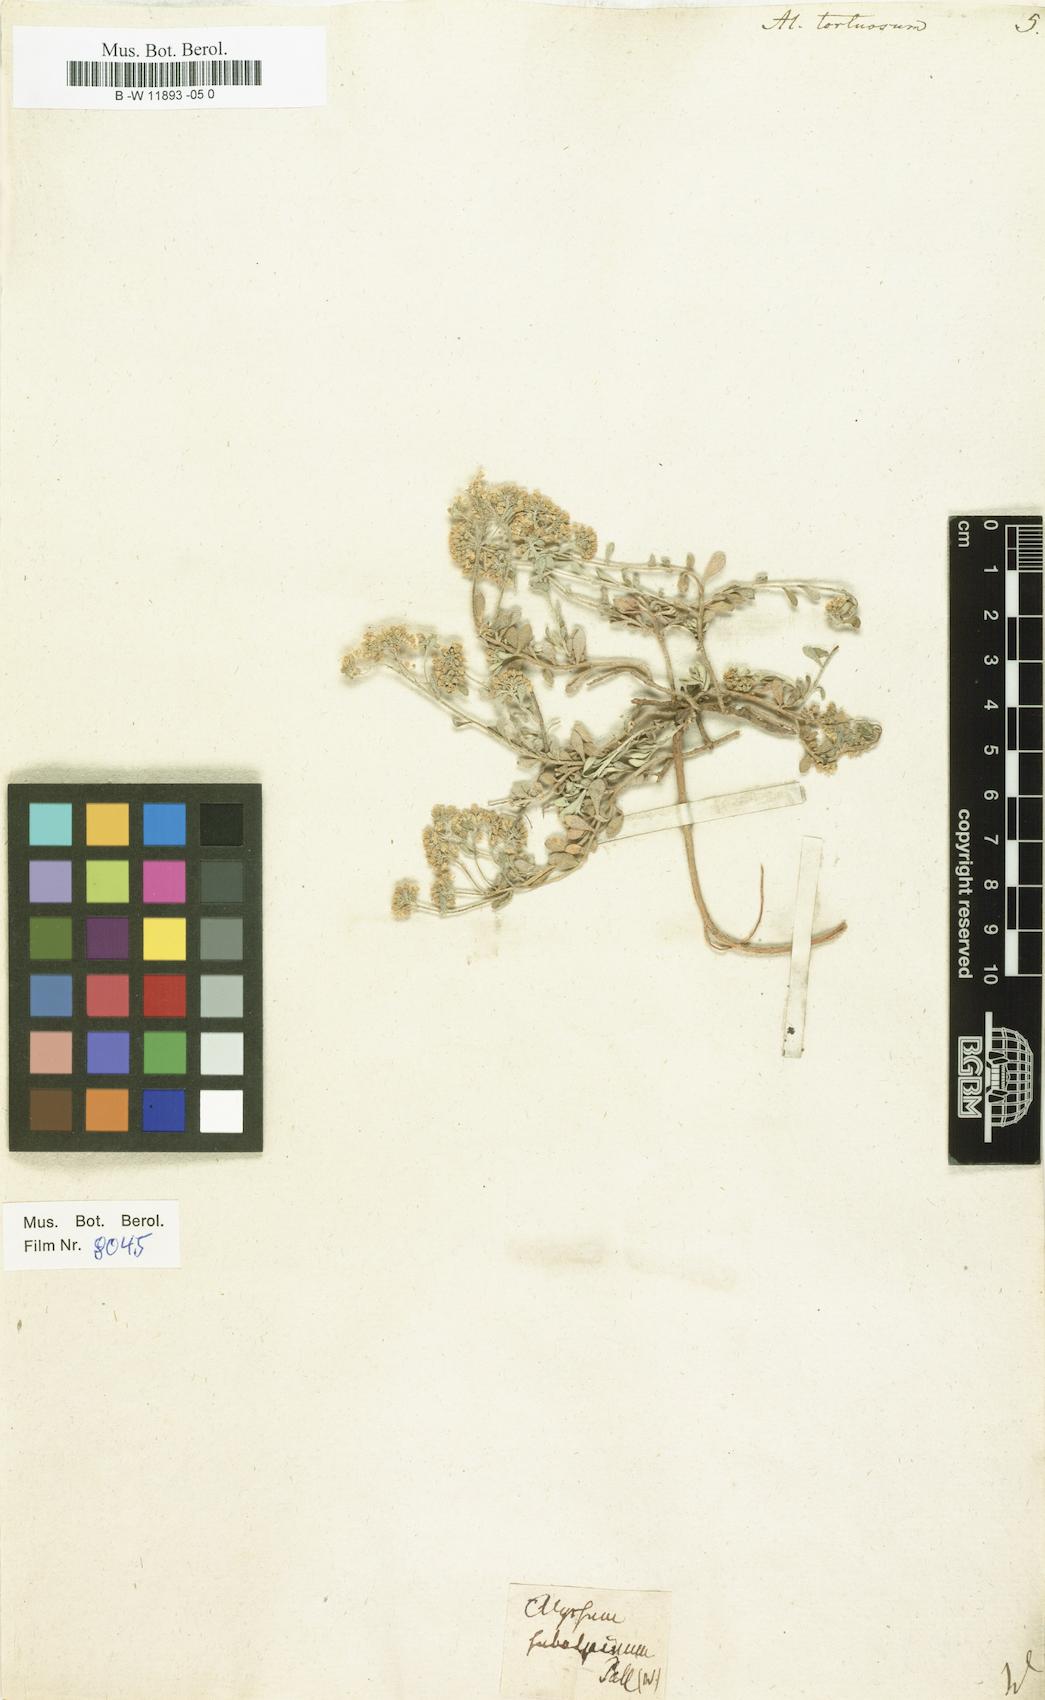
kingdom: Plantae
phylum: Tracheophyta
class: Magnoliopsida
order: Brassicales
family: Brassicaceae
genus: Odontarrhena
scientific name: Odontarrhena tortuosa
